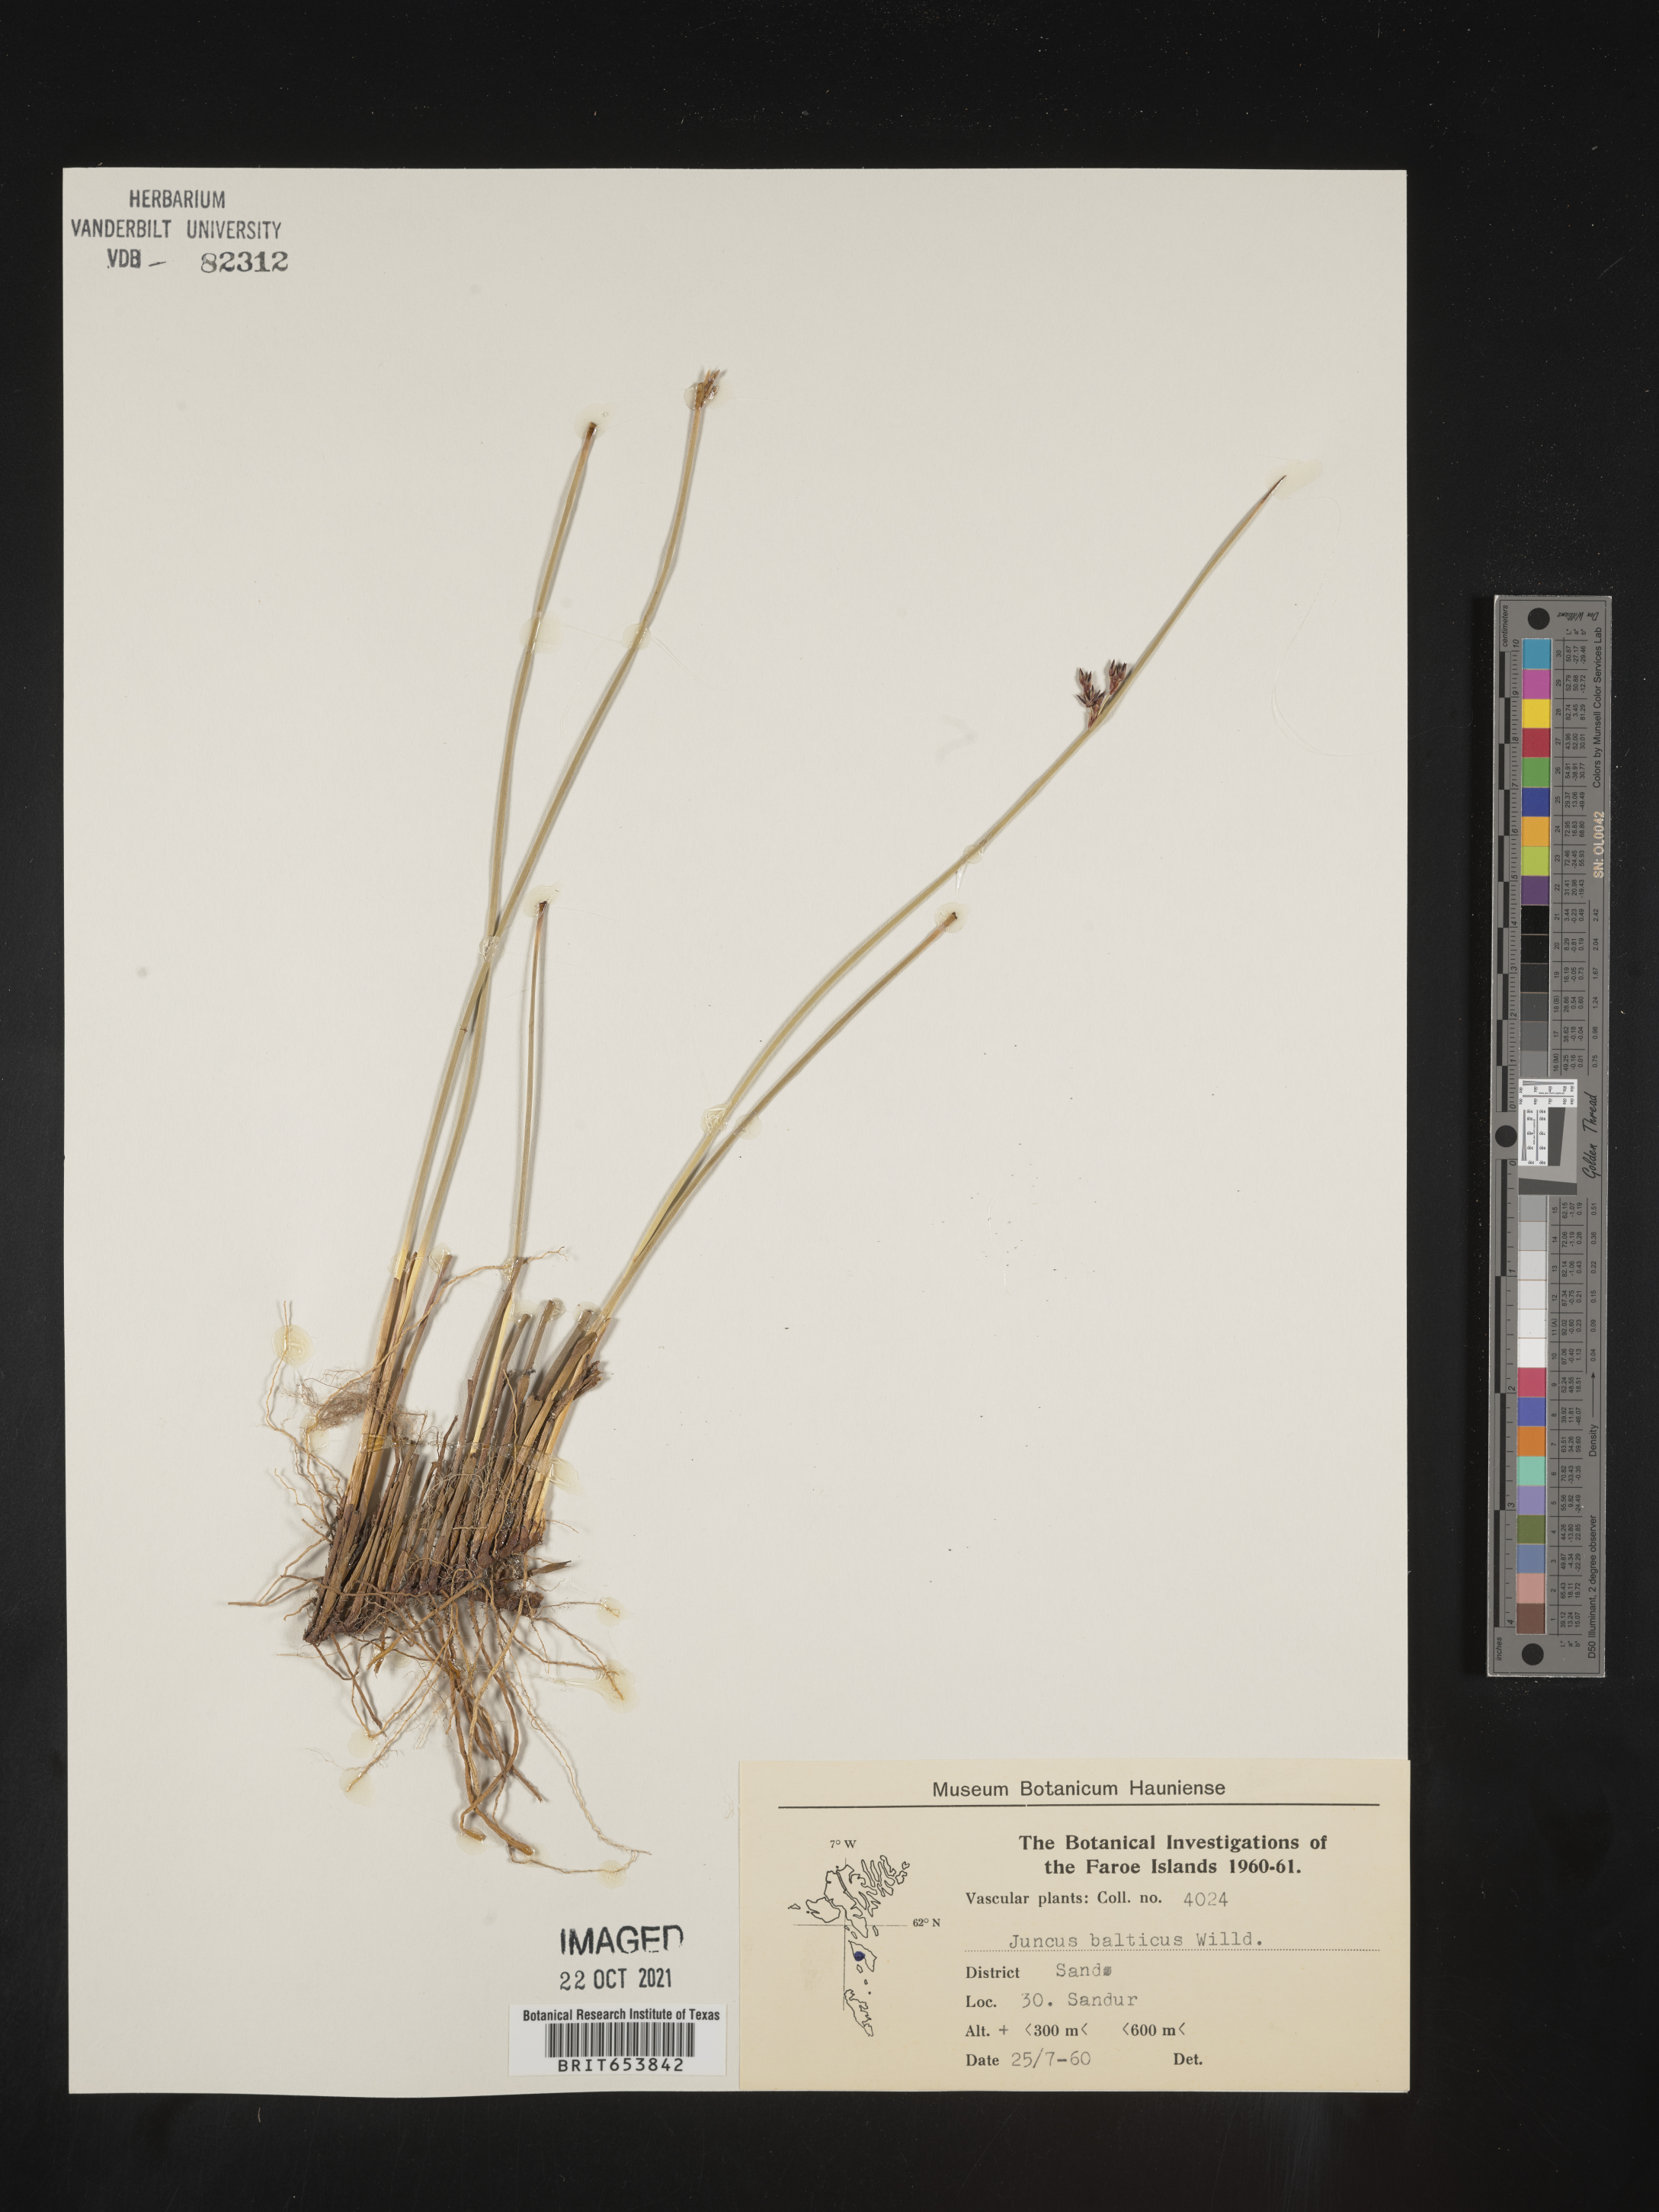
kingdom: Plantae
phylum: Tracheophyta
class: Liliopsida
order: Poales
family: Juncaceae
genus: Juncus
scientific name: Juncus
